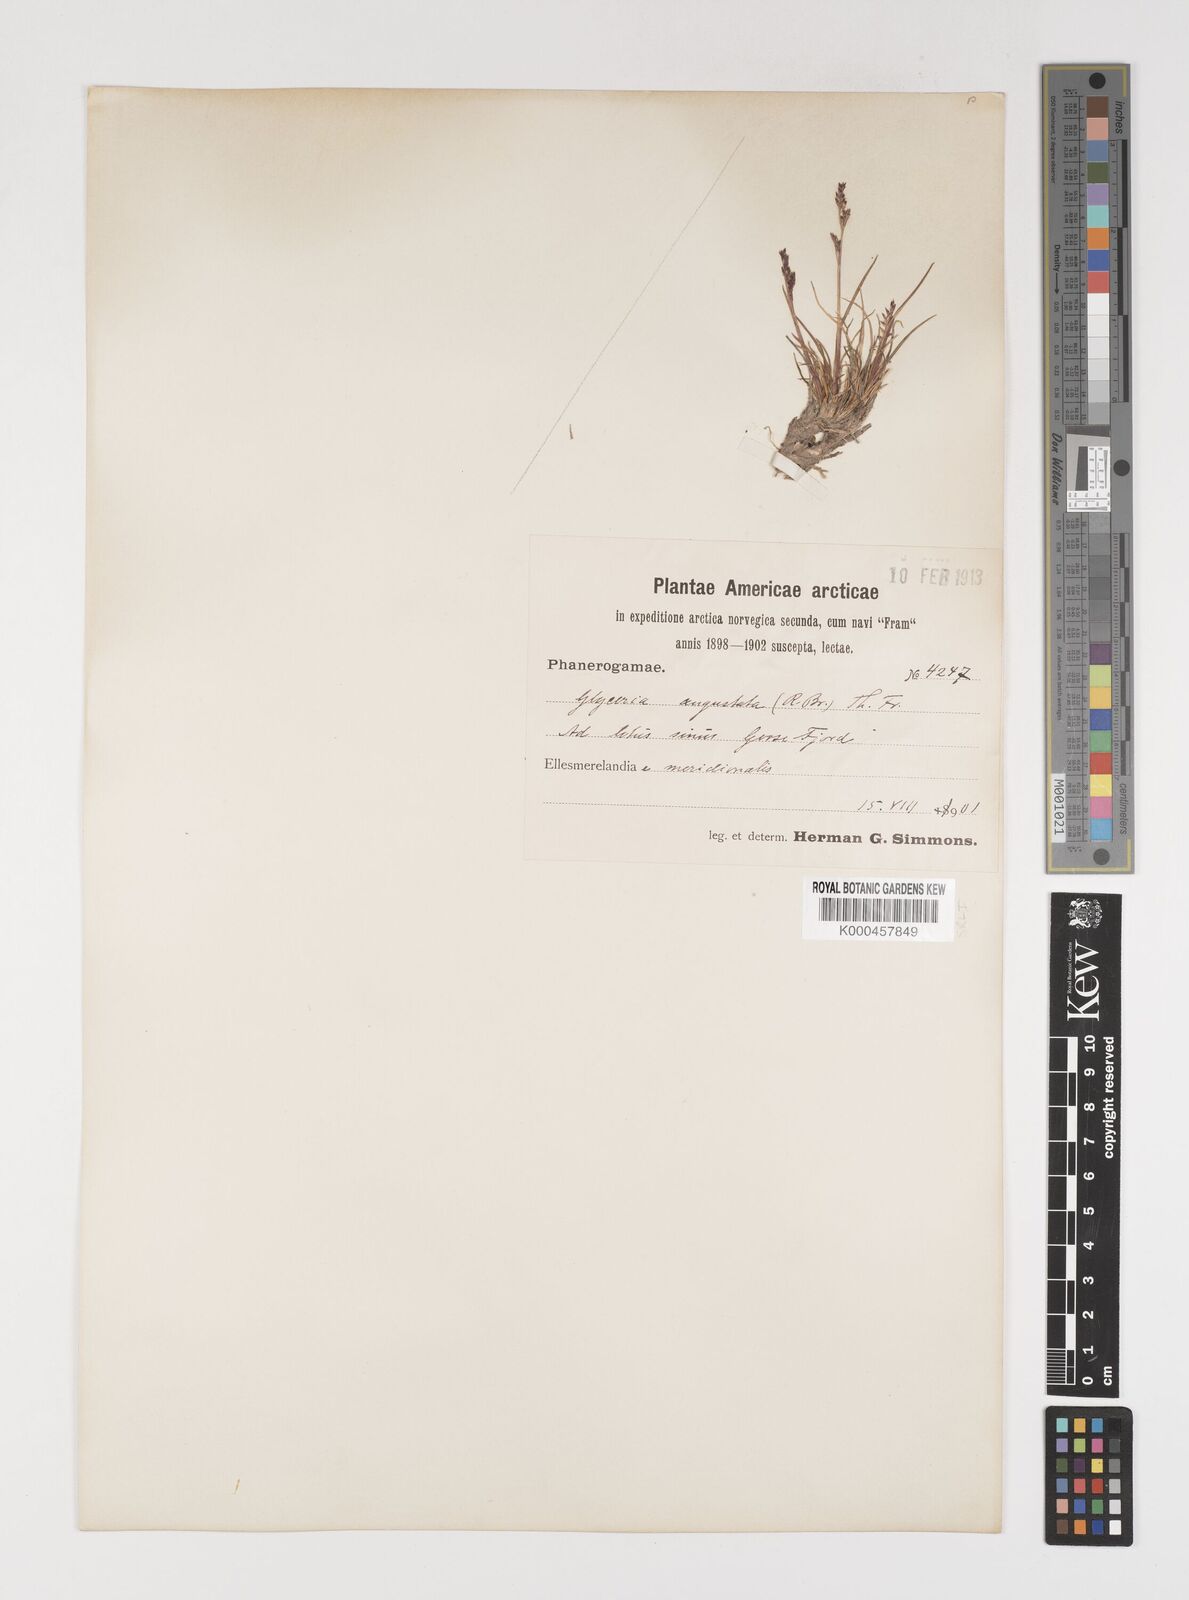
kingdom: Plantae
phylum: Tracheophyta
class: Liliopsida
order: Poales
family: Poaceae
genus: Puccinellia
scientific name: Puccinellia angustata
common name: Narrow alkaligrass
